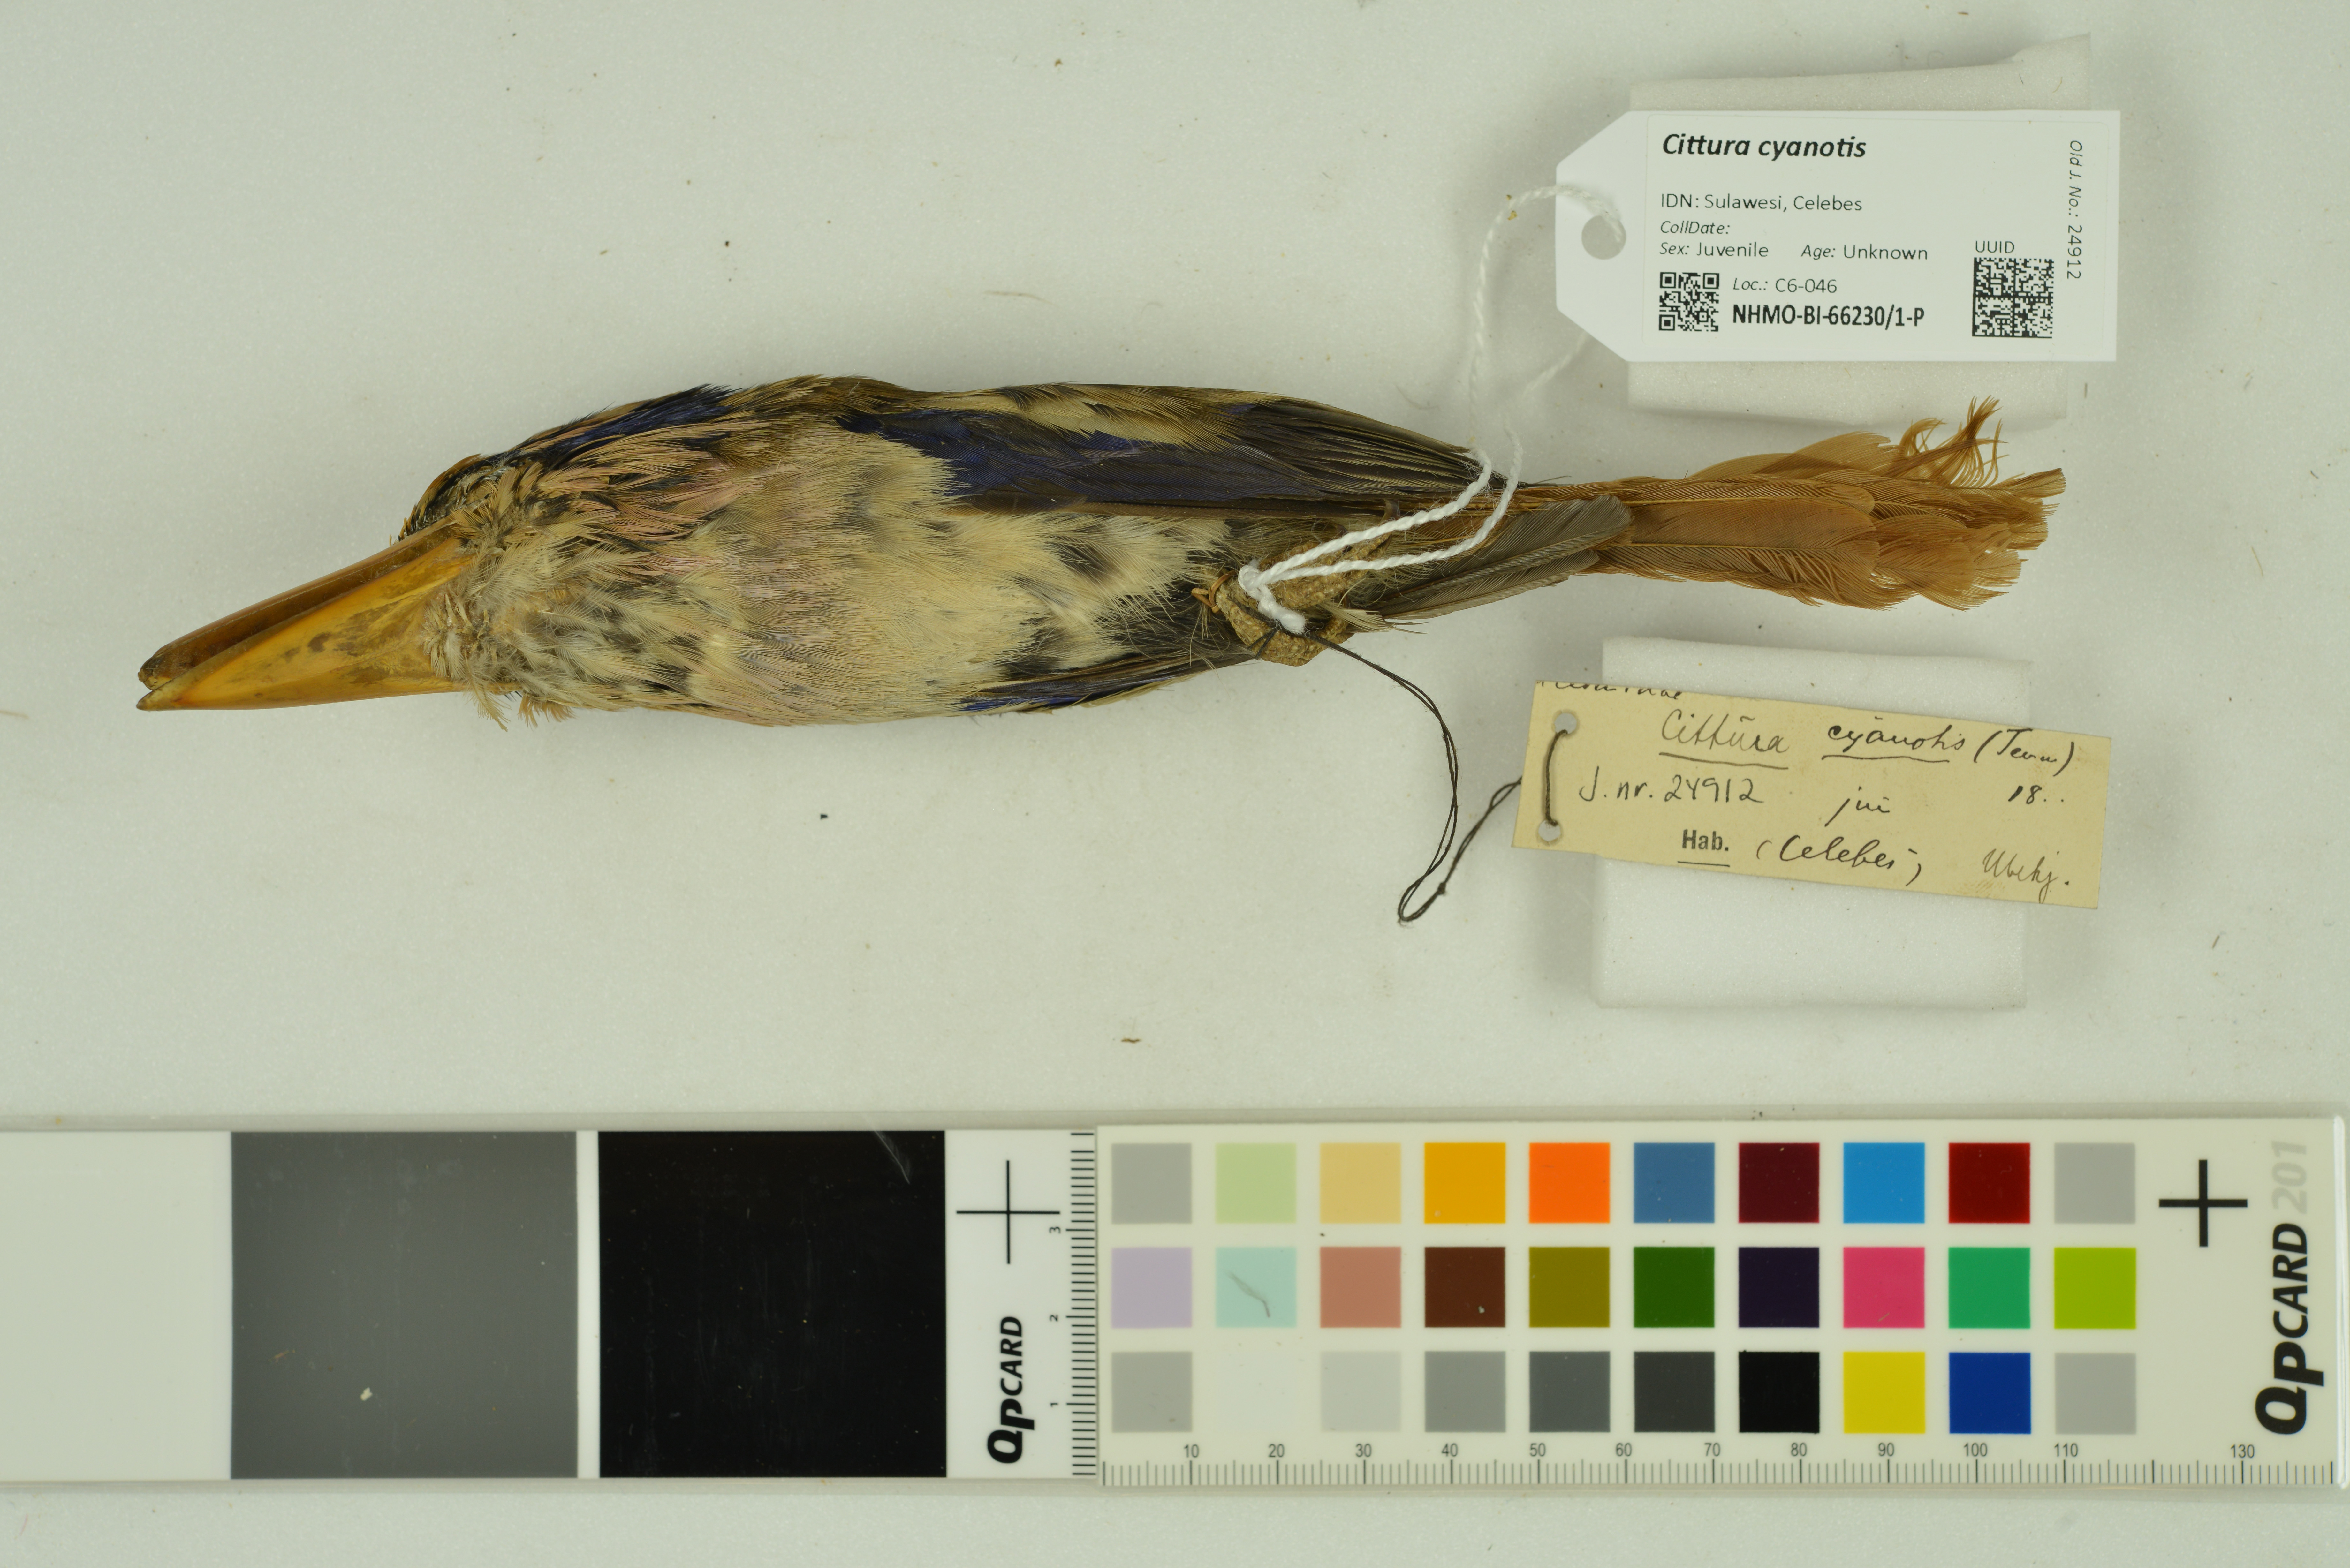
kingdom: Animalia
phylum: Chordata
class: Aves
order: Coraciiformes
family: Alcedinidae
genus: Cittura
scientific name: Cittura cyanotis
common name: Lilac kingfisher
